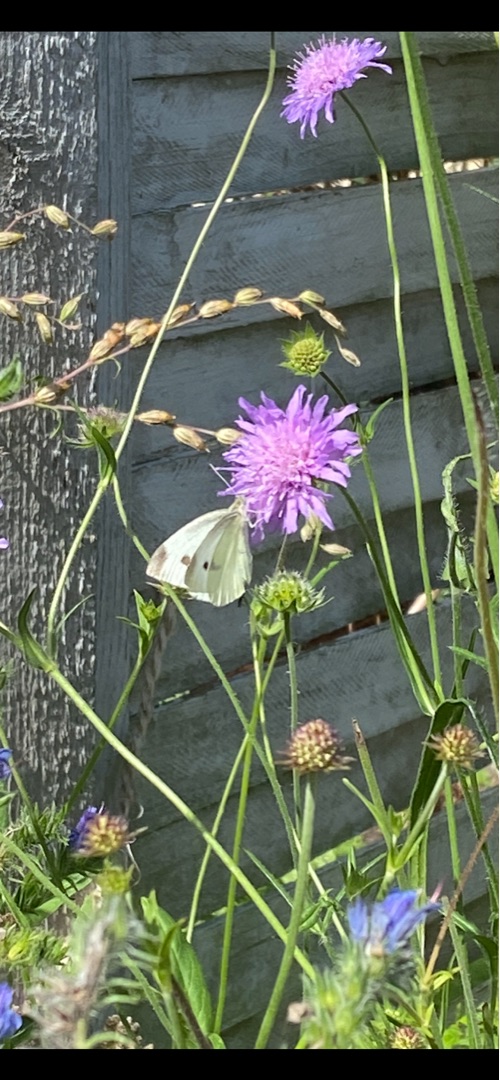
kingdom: Animalia
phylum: Arthropoda
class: Insecta
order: Lepidoptera
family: Pieridae
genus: Pieris
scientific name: Pieris rapae
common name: Lille kålsommerfugl
